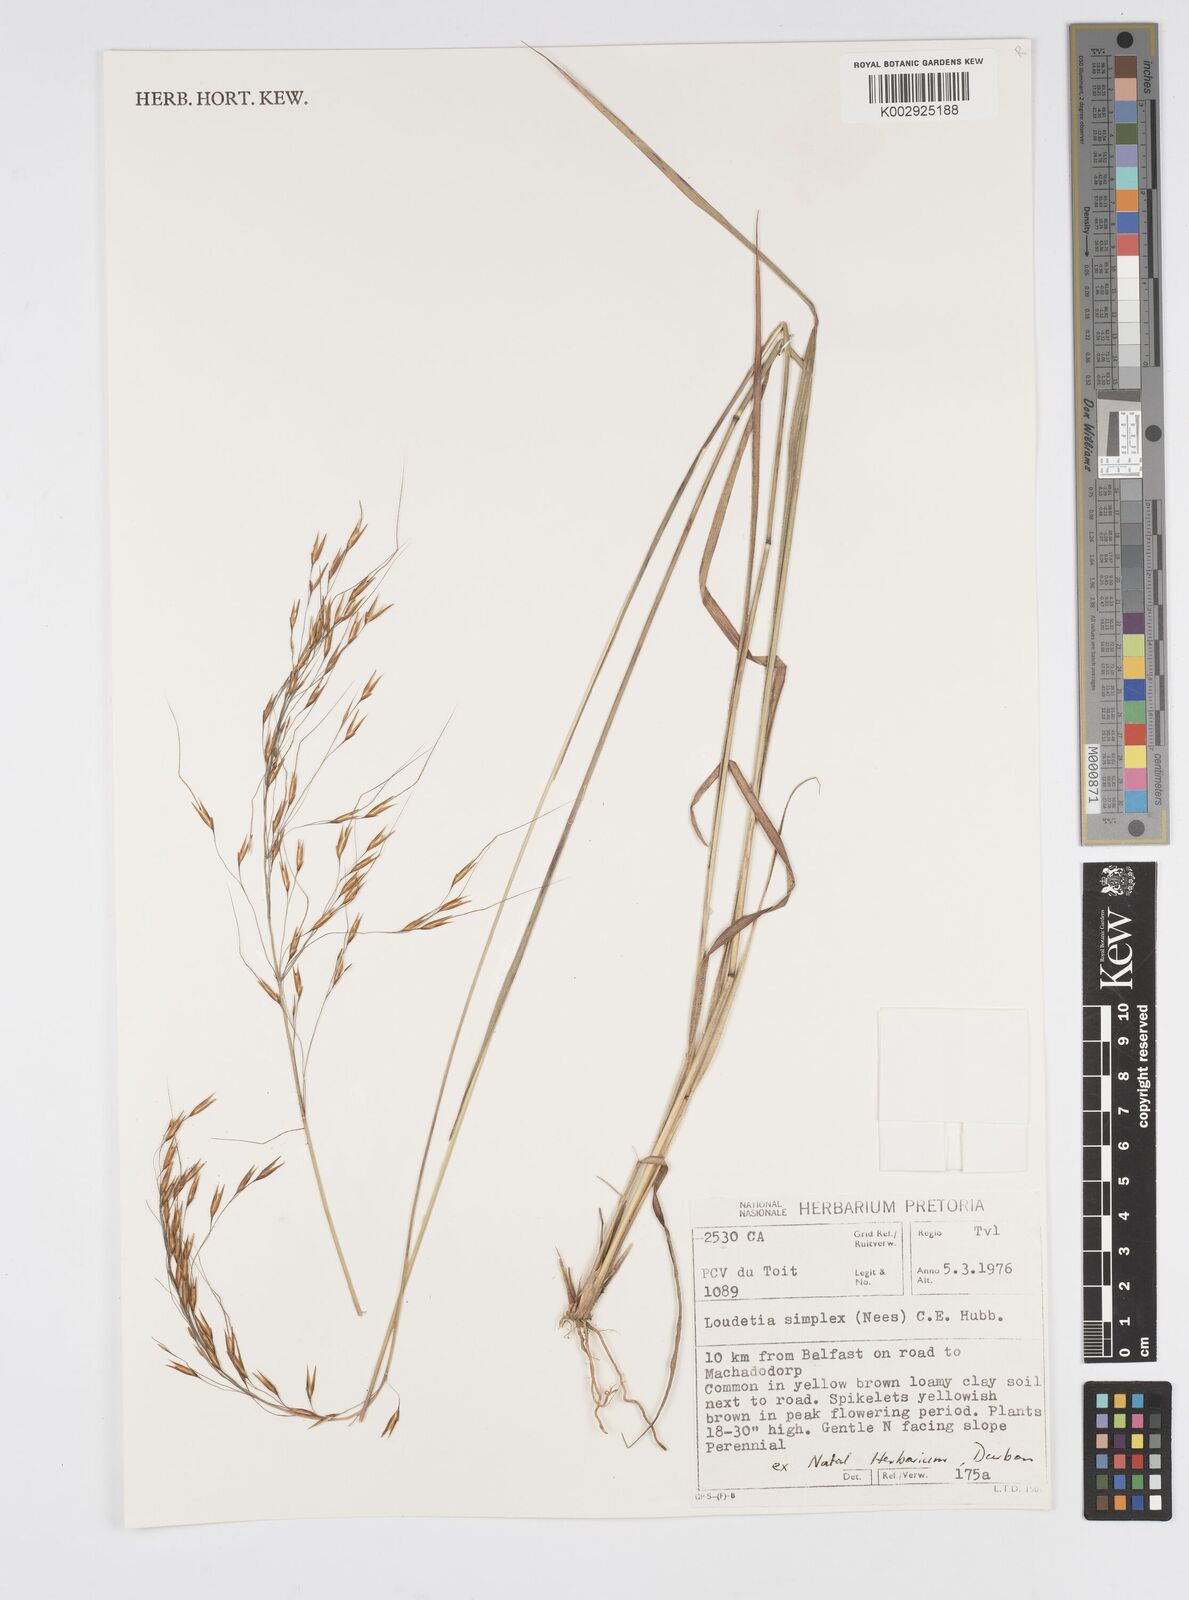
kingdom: Plantae
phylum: Tracheophyta
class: Liliopsida
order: Poales
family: Poaceae
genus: Loudetia
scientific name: Loudetia simplex
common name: Common russet grass
